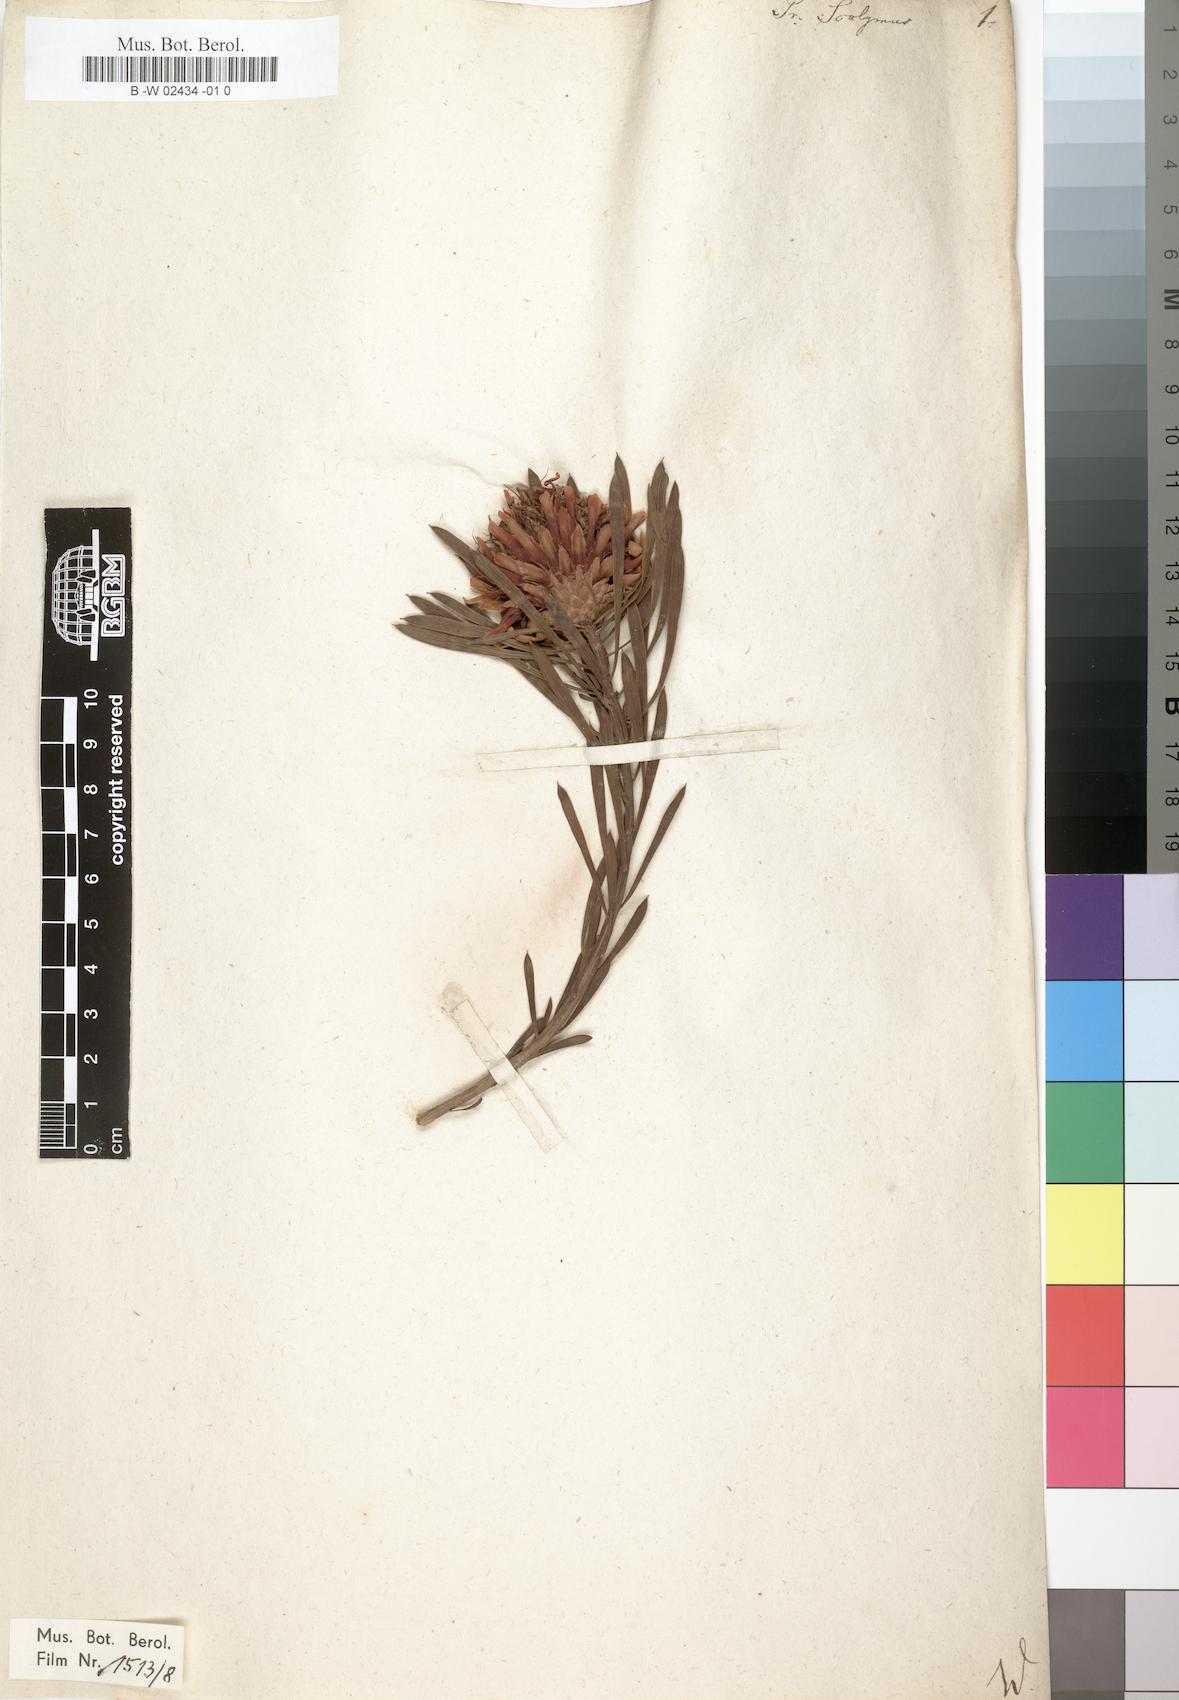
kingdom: Plantae
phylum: Tracheophyta
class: Magnoliopsida
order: Proteales
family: Proteaceae
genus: Protea
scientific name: Protea scolymocephala
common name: Thistle sugarbush
